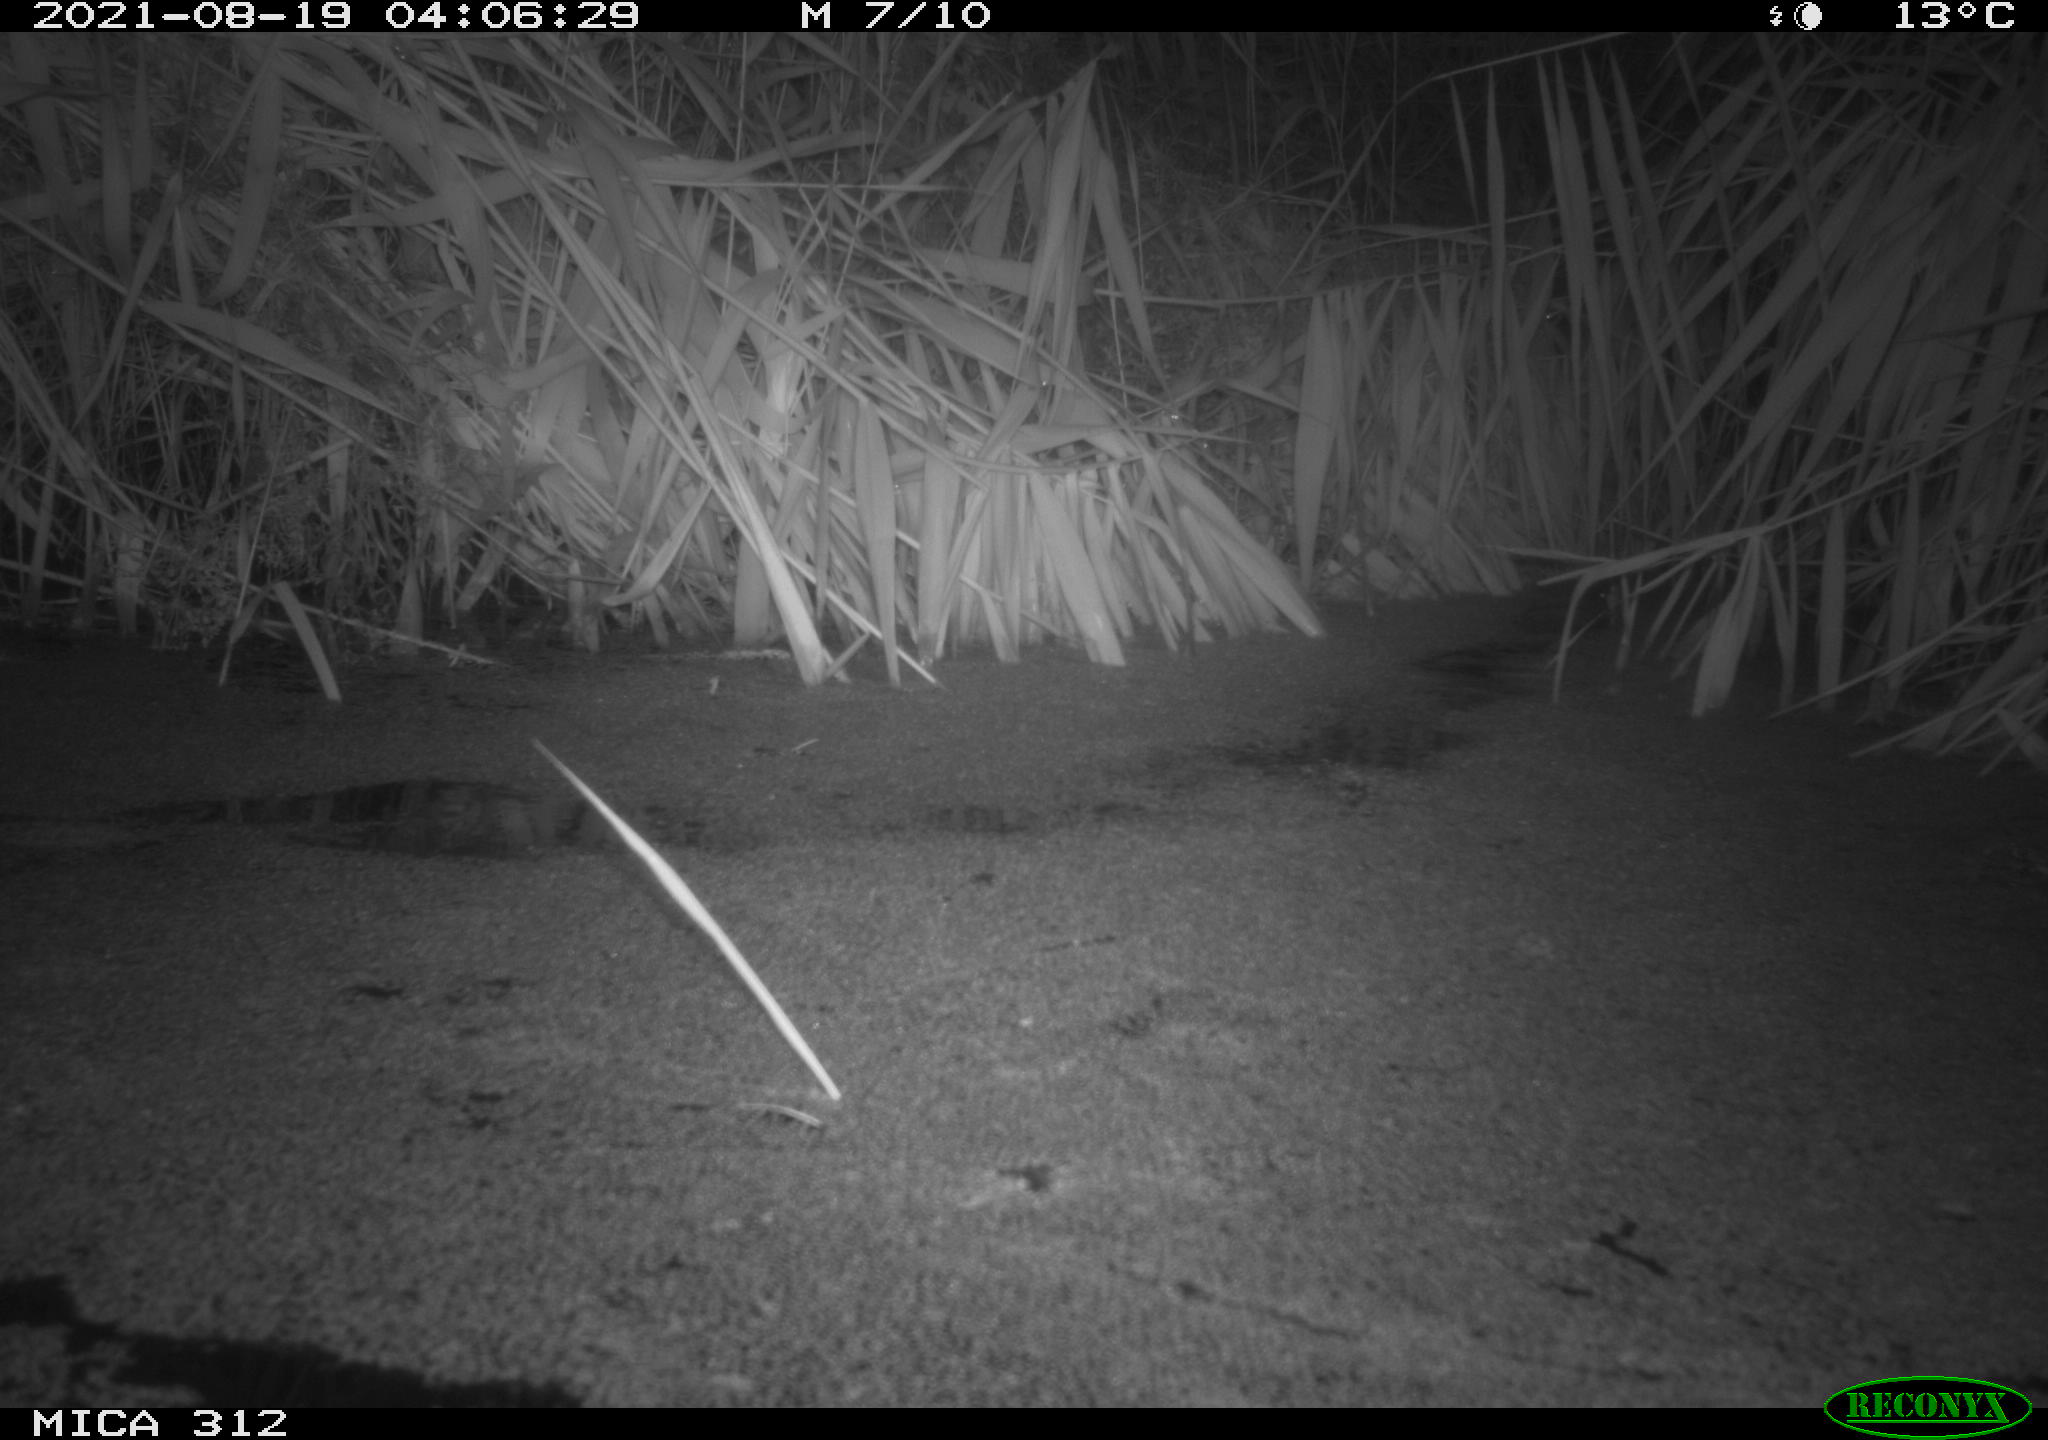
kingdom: Animalia
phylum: Chordata
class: Mammalia
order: Rodentia
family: Cricetidae
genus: Ondatra
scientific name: Ondatra zibethicus
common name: Muskrat
